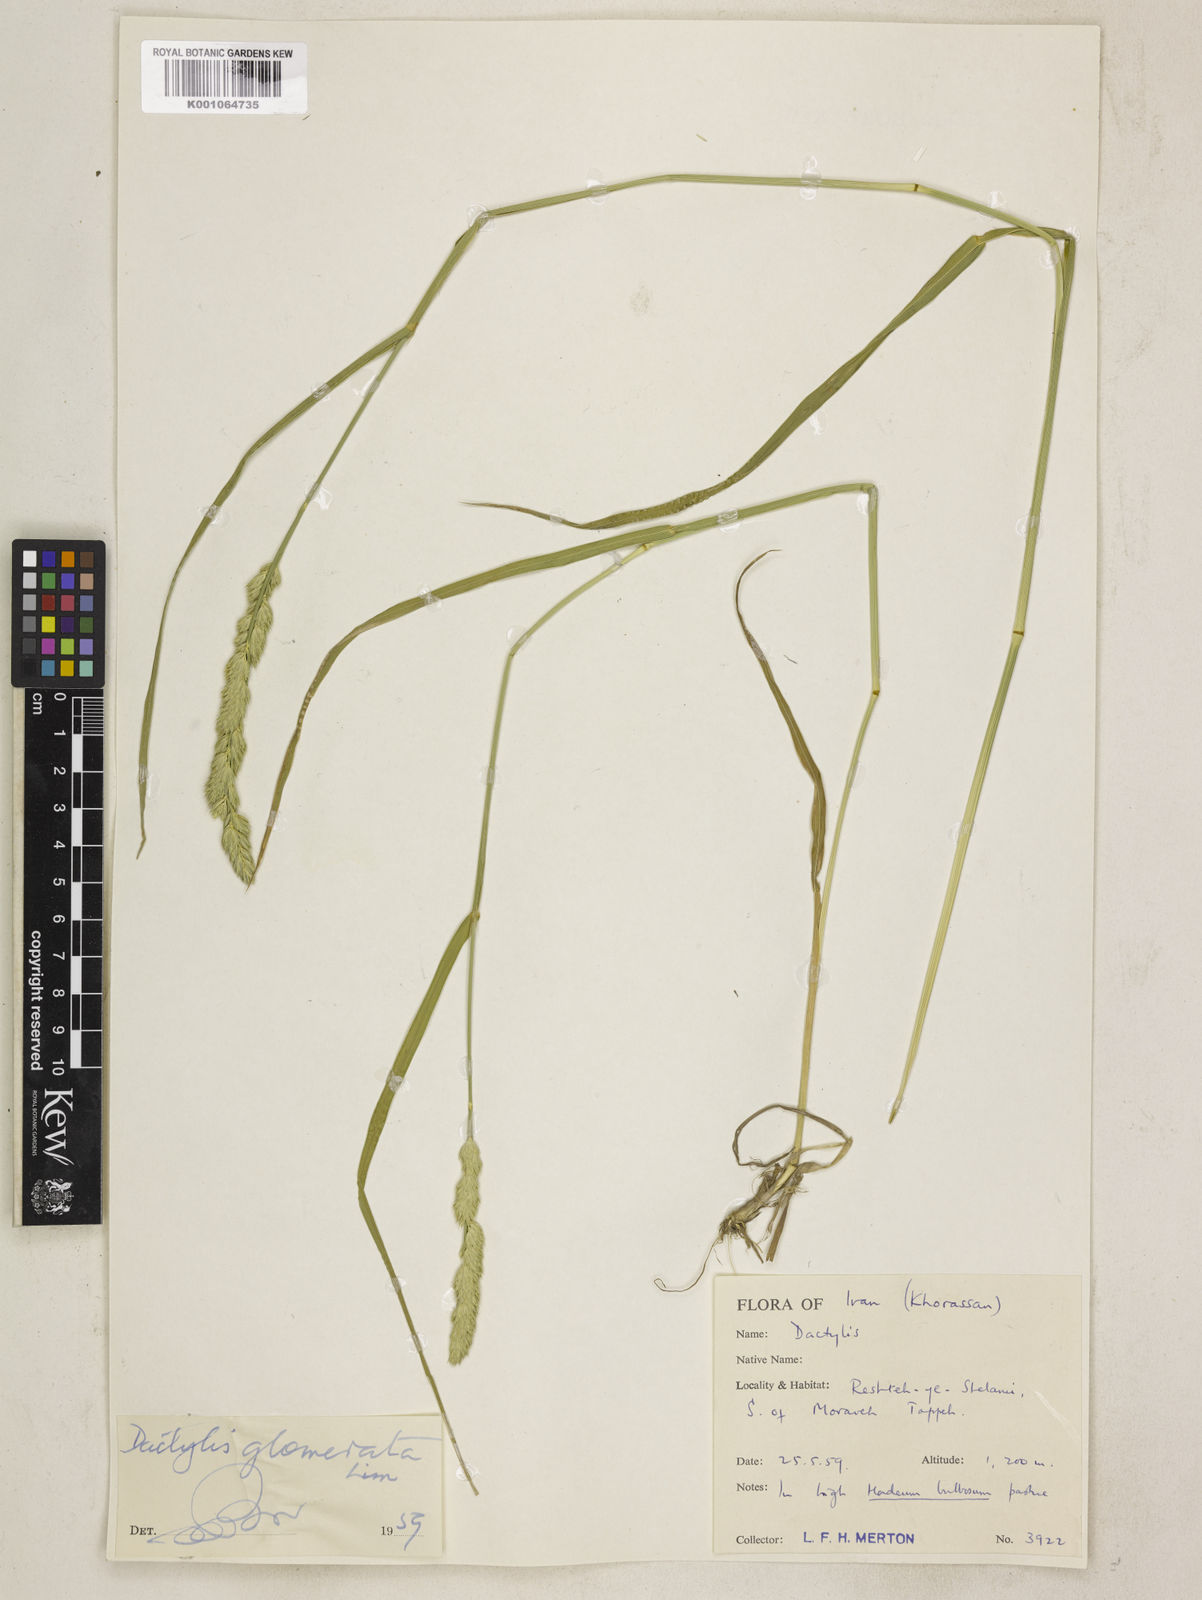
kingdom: Plantae
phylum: Tracheophyta
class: Liliopsida
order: Poales
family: Poaceae
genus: Dactylis
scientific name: Dactylis glomerata
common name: Orchardgrass
